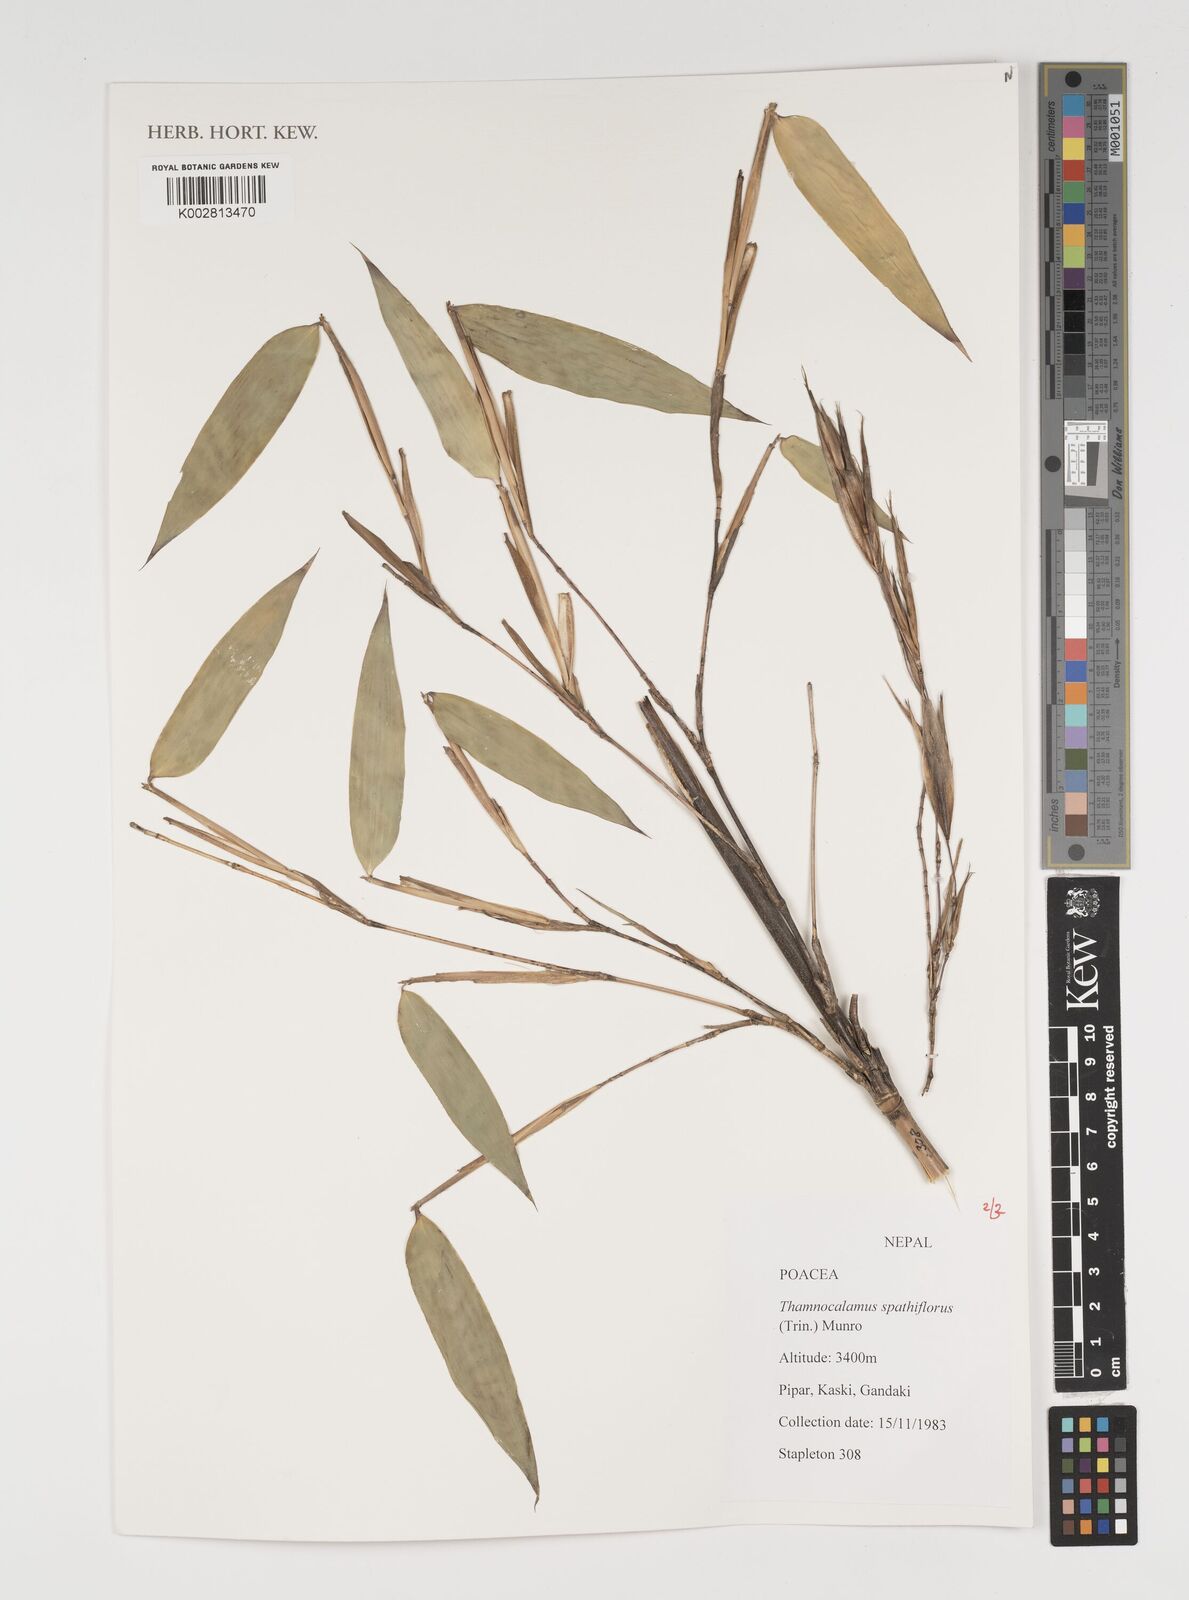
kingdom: Plantae
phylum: Tracheophyta
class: Liliopsida
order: Poales
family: Poaceae
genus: Thamnocalamus
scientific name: Thamnocalamus spathiflorus
